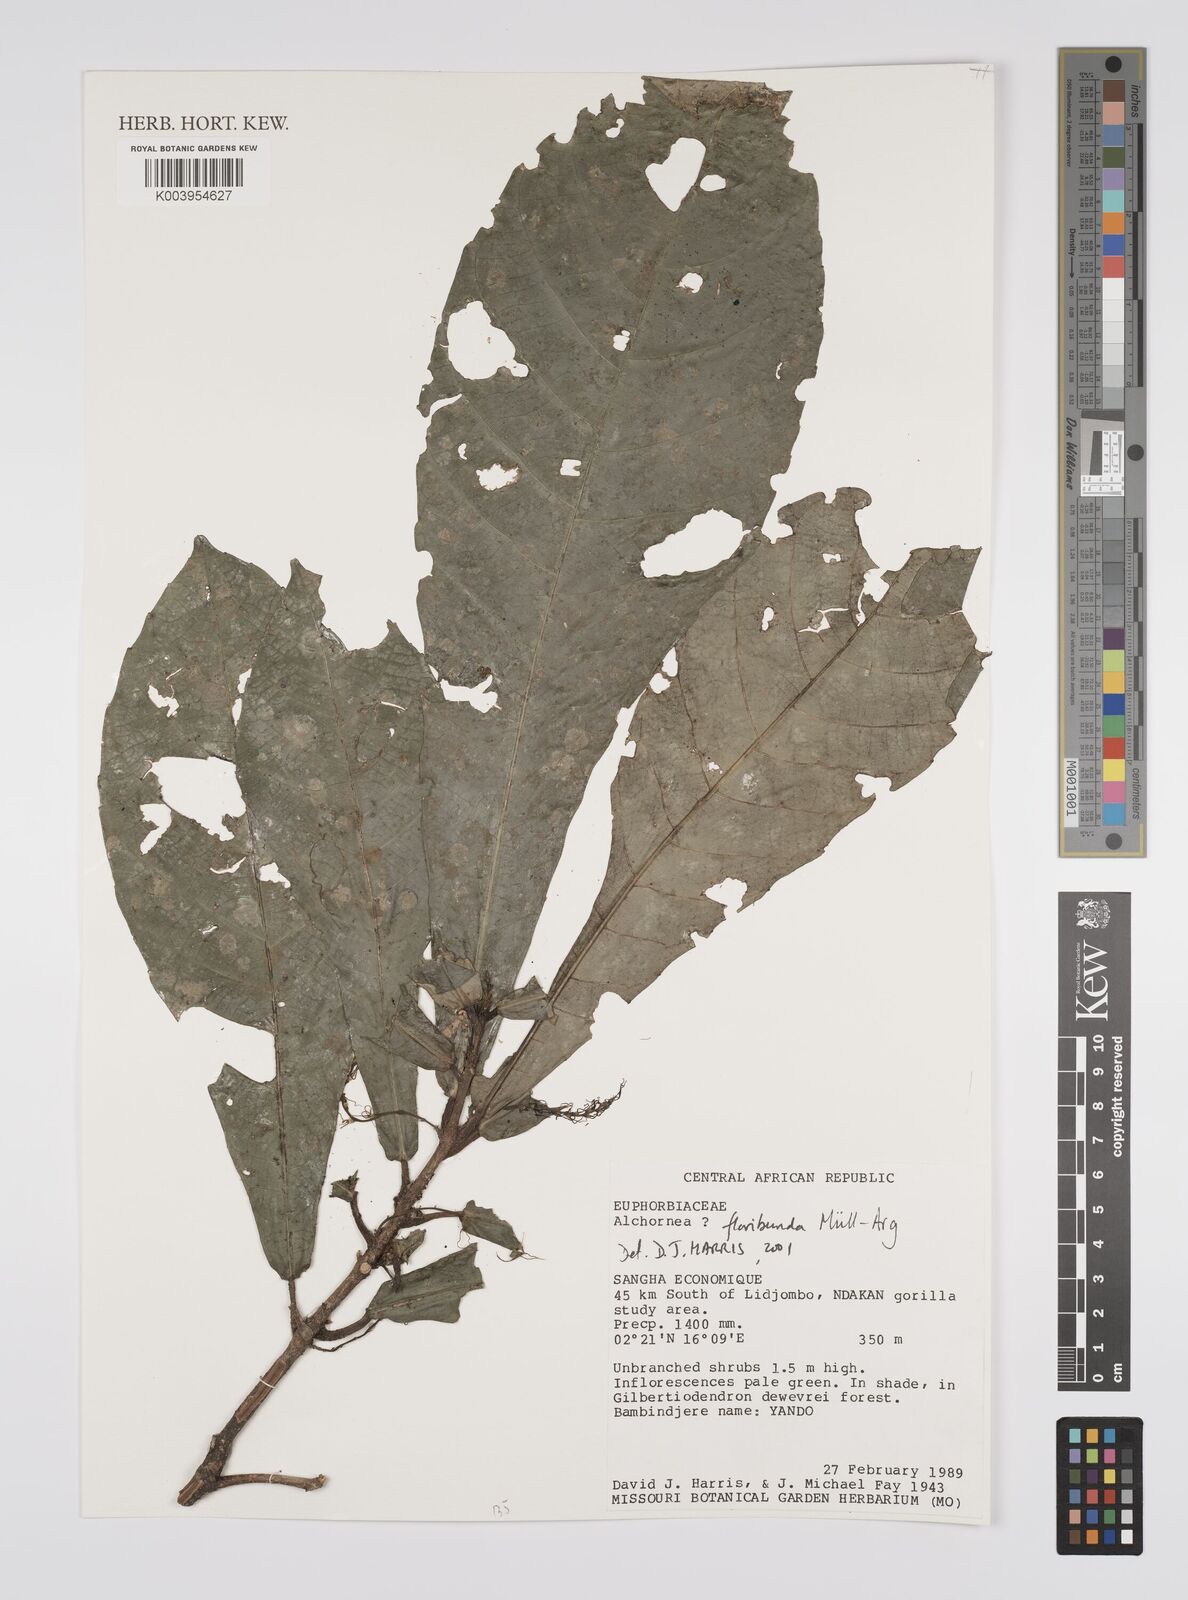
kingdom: Plantae
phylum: Tracheophyta
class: Magnoliopsida
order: Malpighiales
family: Euphorbiaceae
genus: Alchornea
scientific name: Alchornea floribunda
